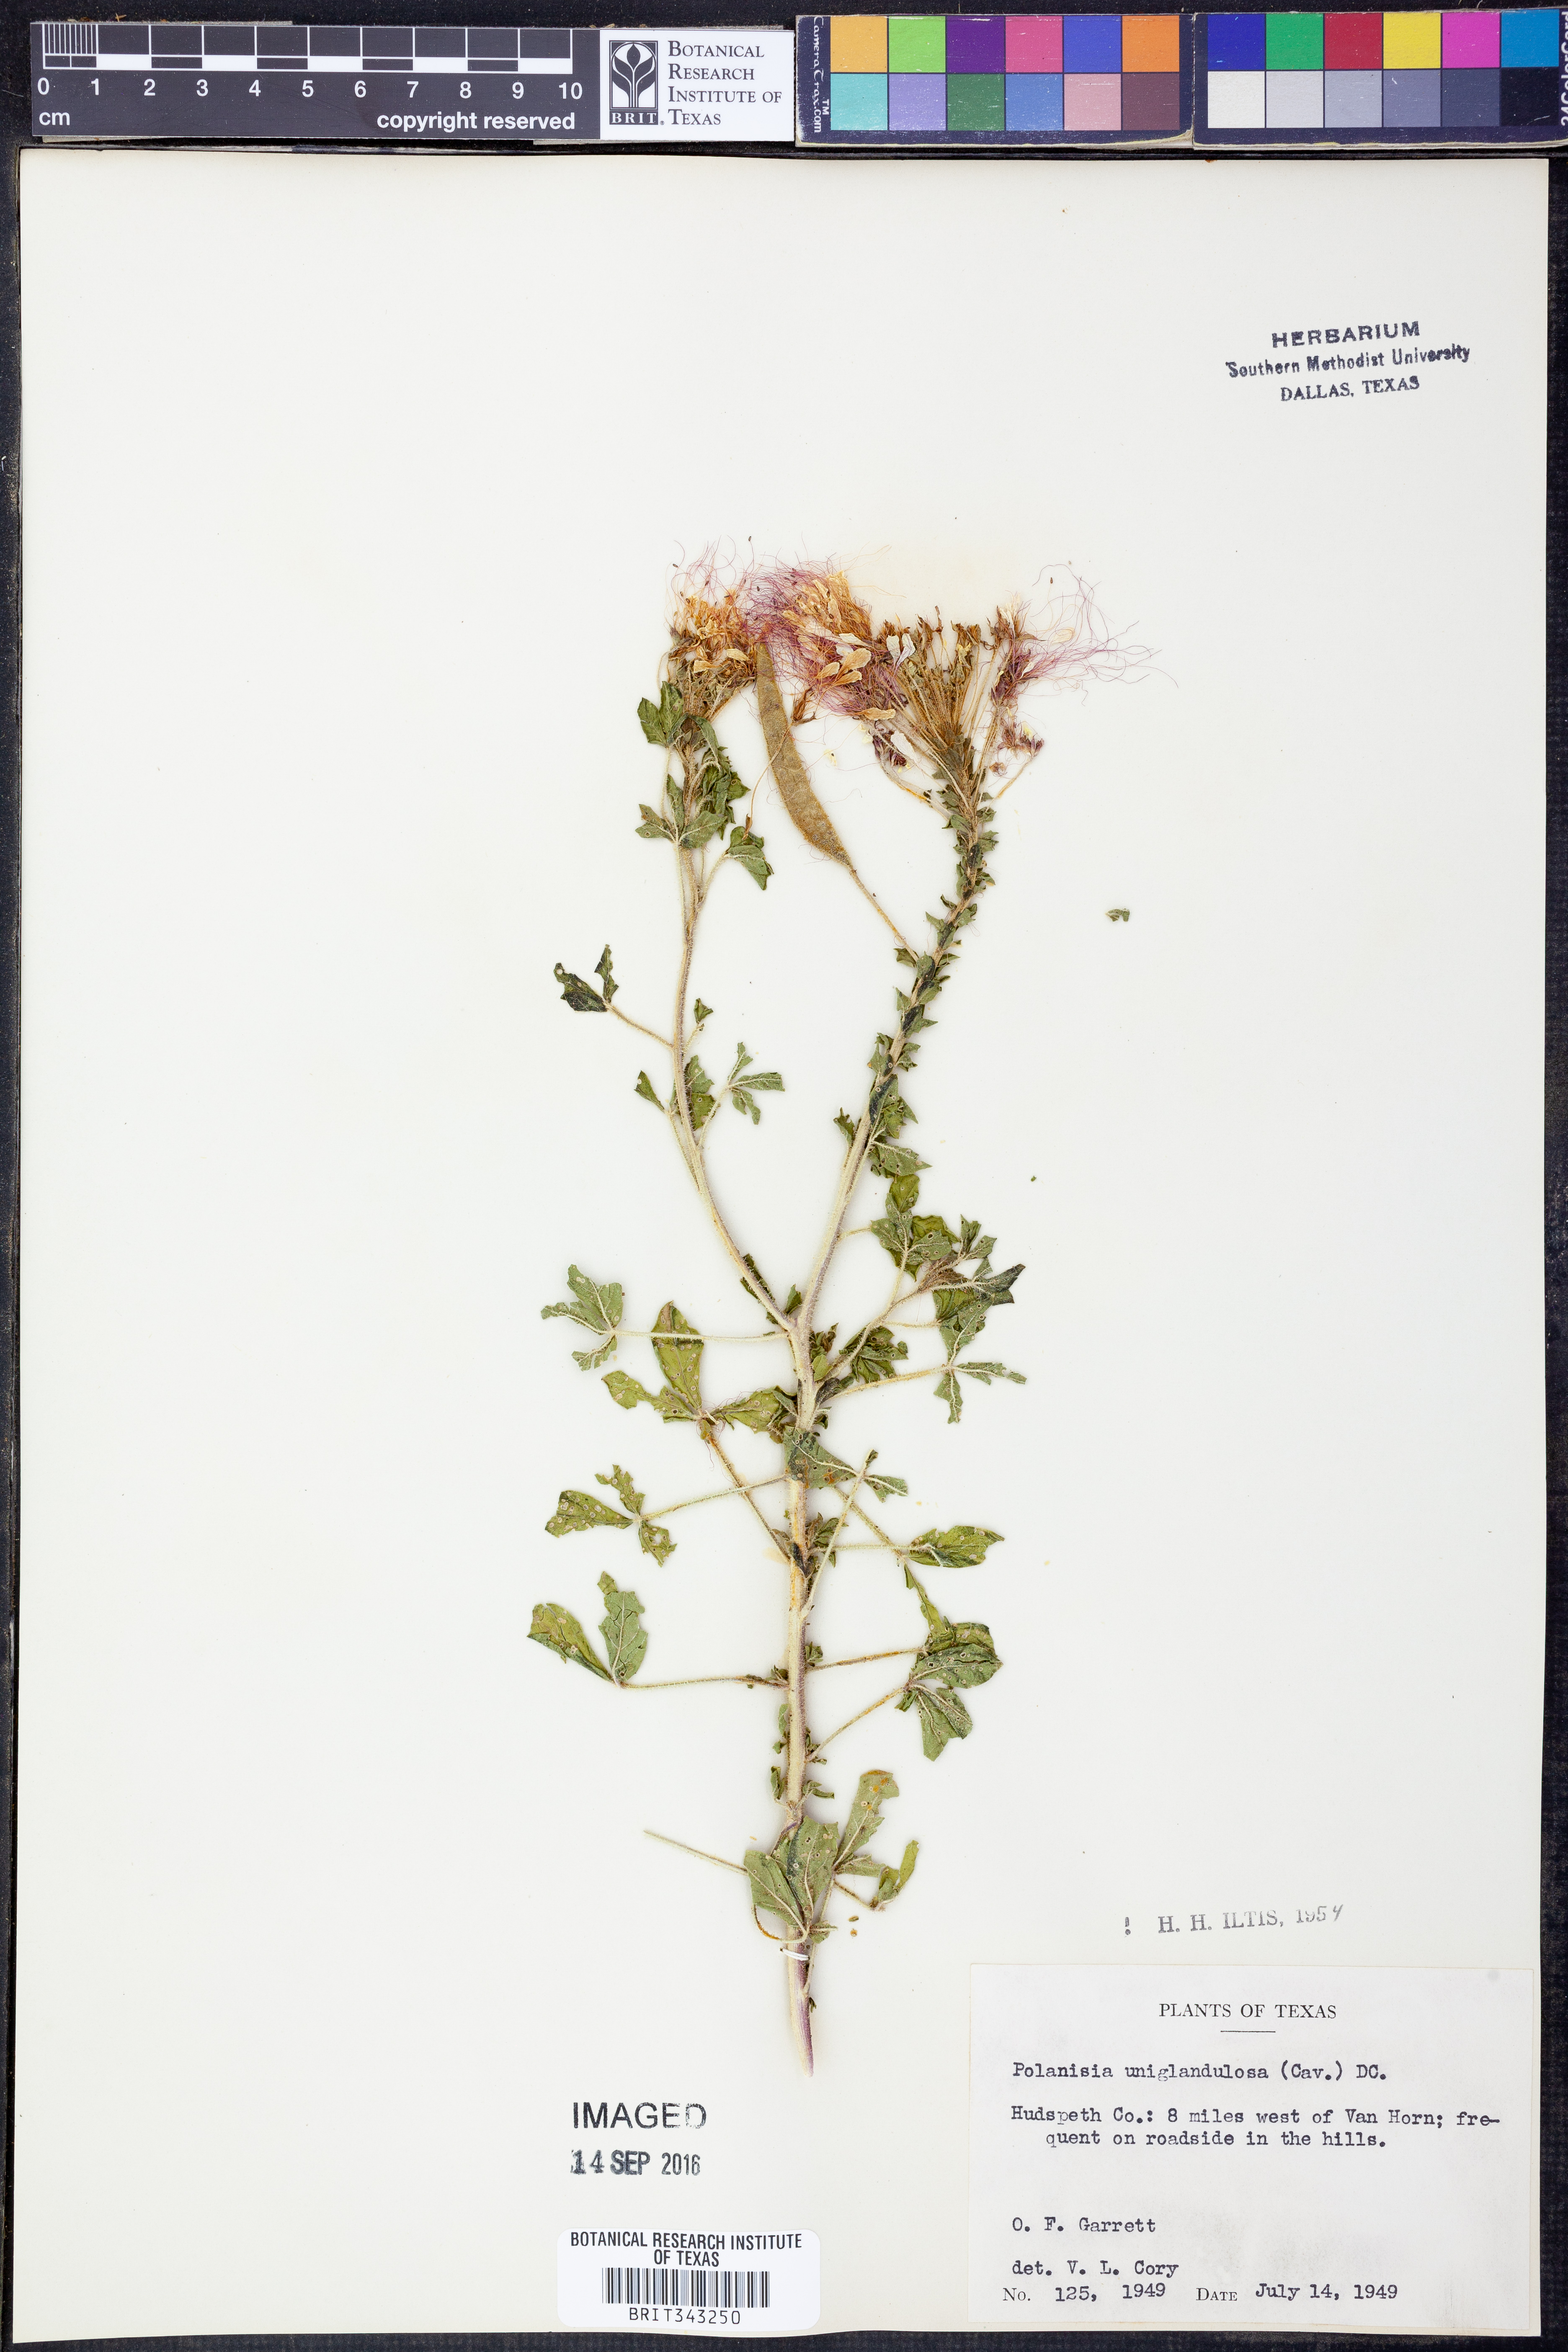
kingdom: Plantae
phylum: Tracheophyta
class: Magnoliopsida
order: Brassicales
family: Cleomaceae
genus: Polanisia
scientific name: Polanisia uniglandulosa
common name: Mexican clammyweed
